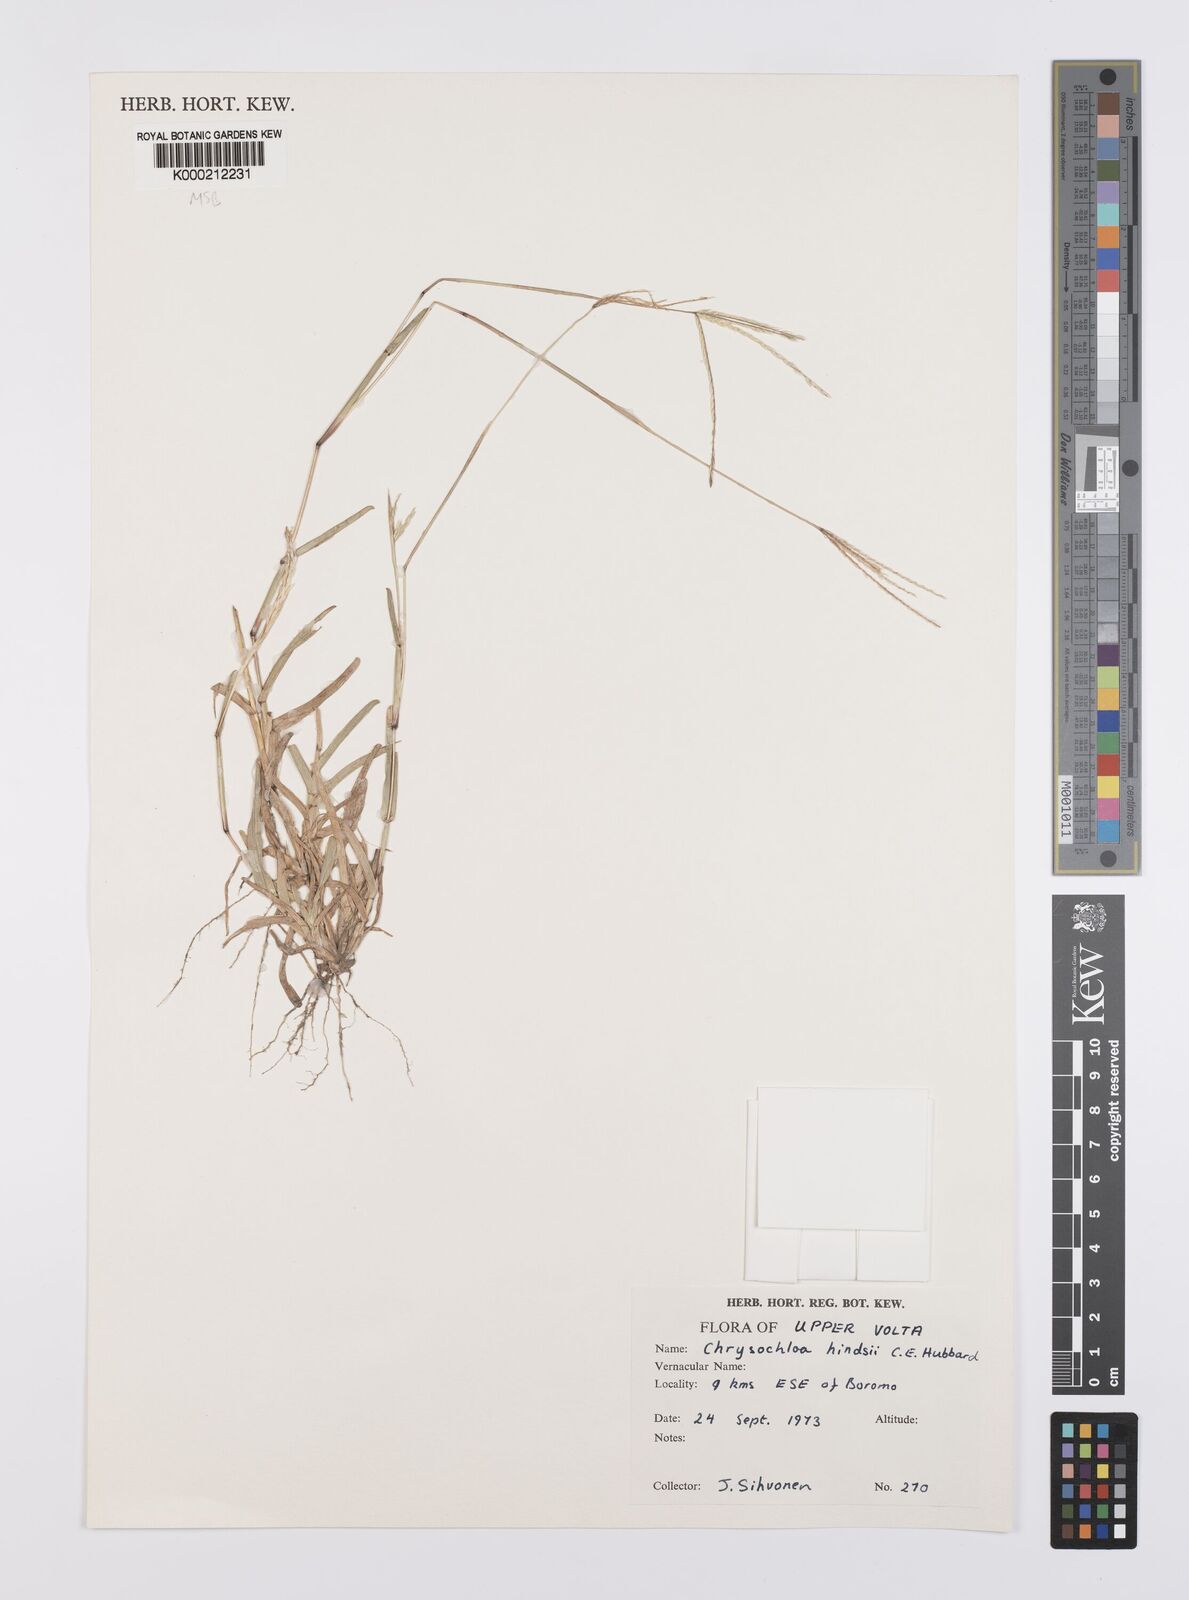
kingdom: Plantae
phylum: Tracheophyta
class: Liliopsida
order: Poales
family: Poaceae
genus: Chrysochloa
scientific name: Chrysochloa hindsii
